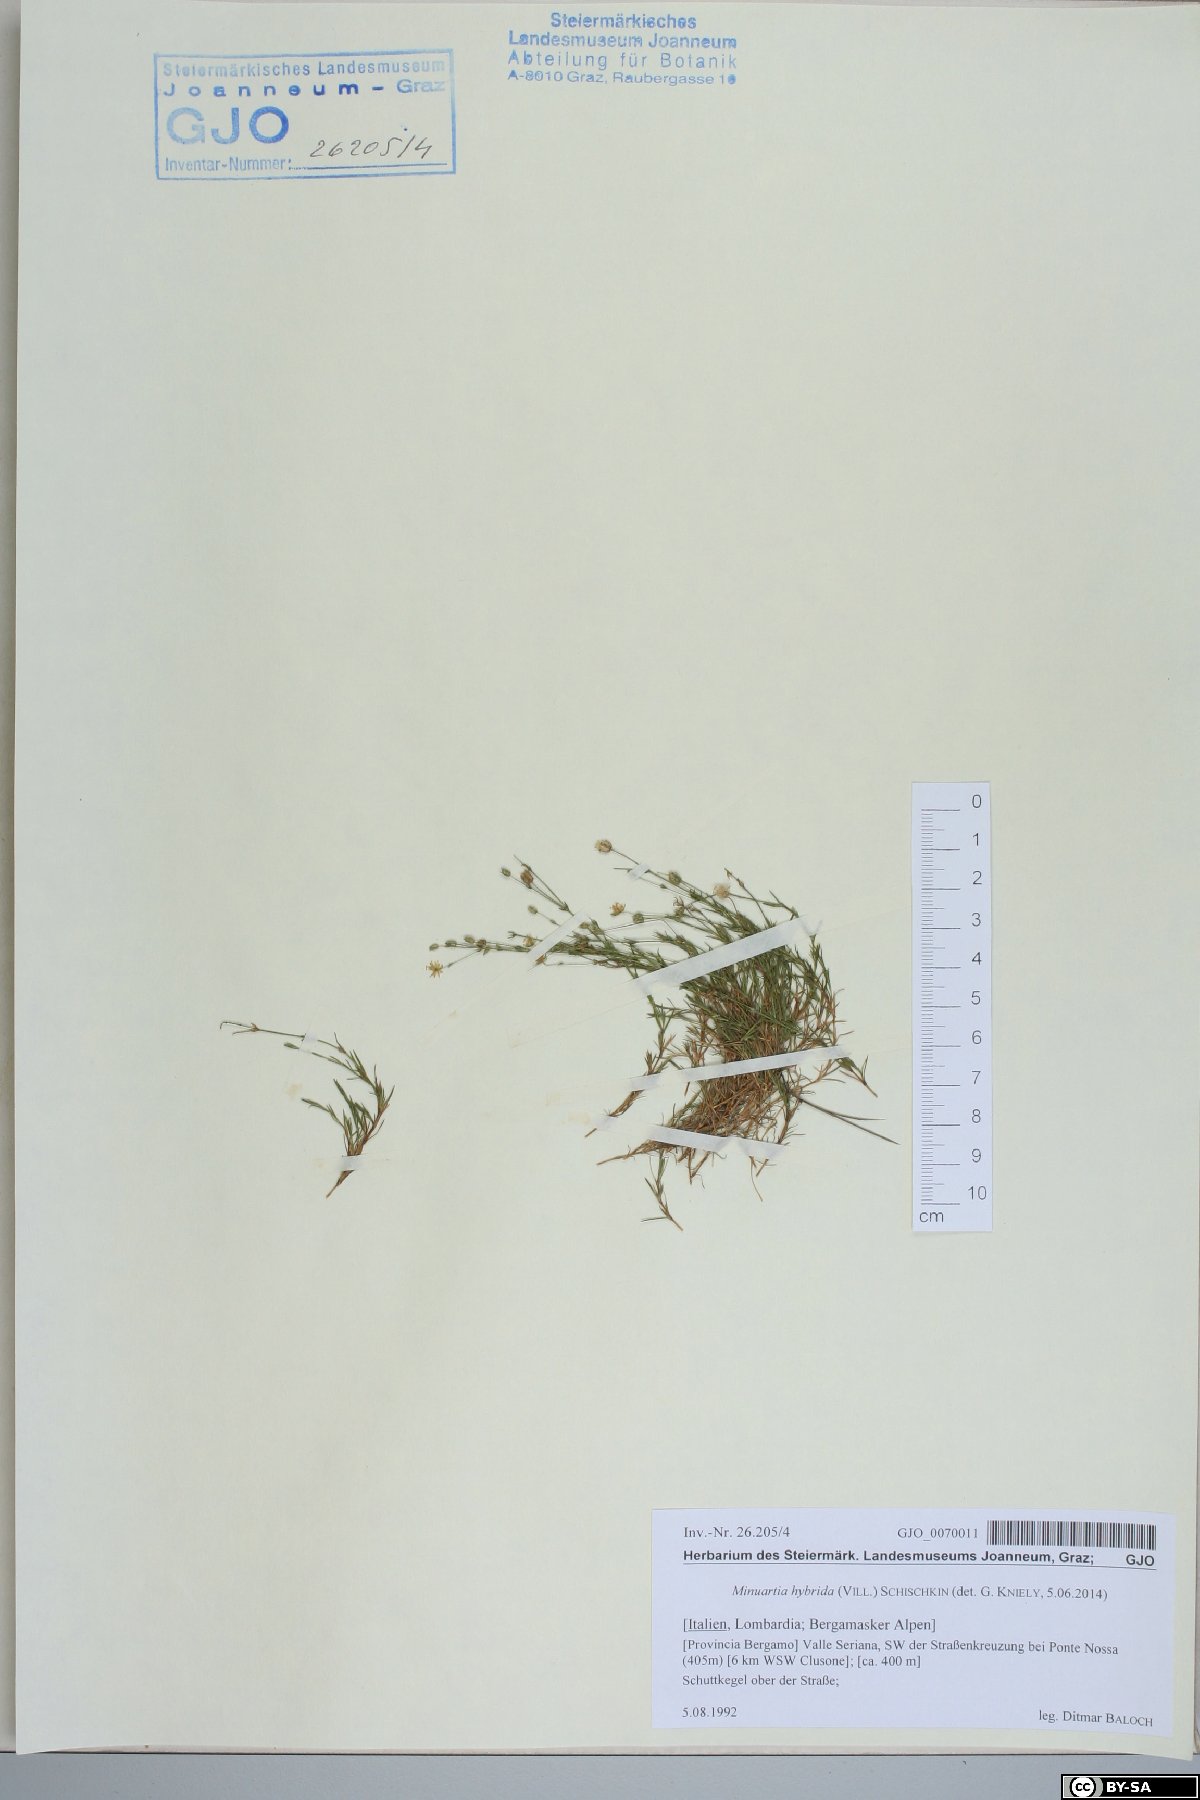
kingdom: Plantae
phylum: Tracheophyta
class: Magnoliopsida
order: Caryophyllales
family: Caryophyllaceae
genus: Sabulina
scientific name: Sabulina tenuifolia
